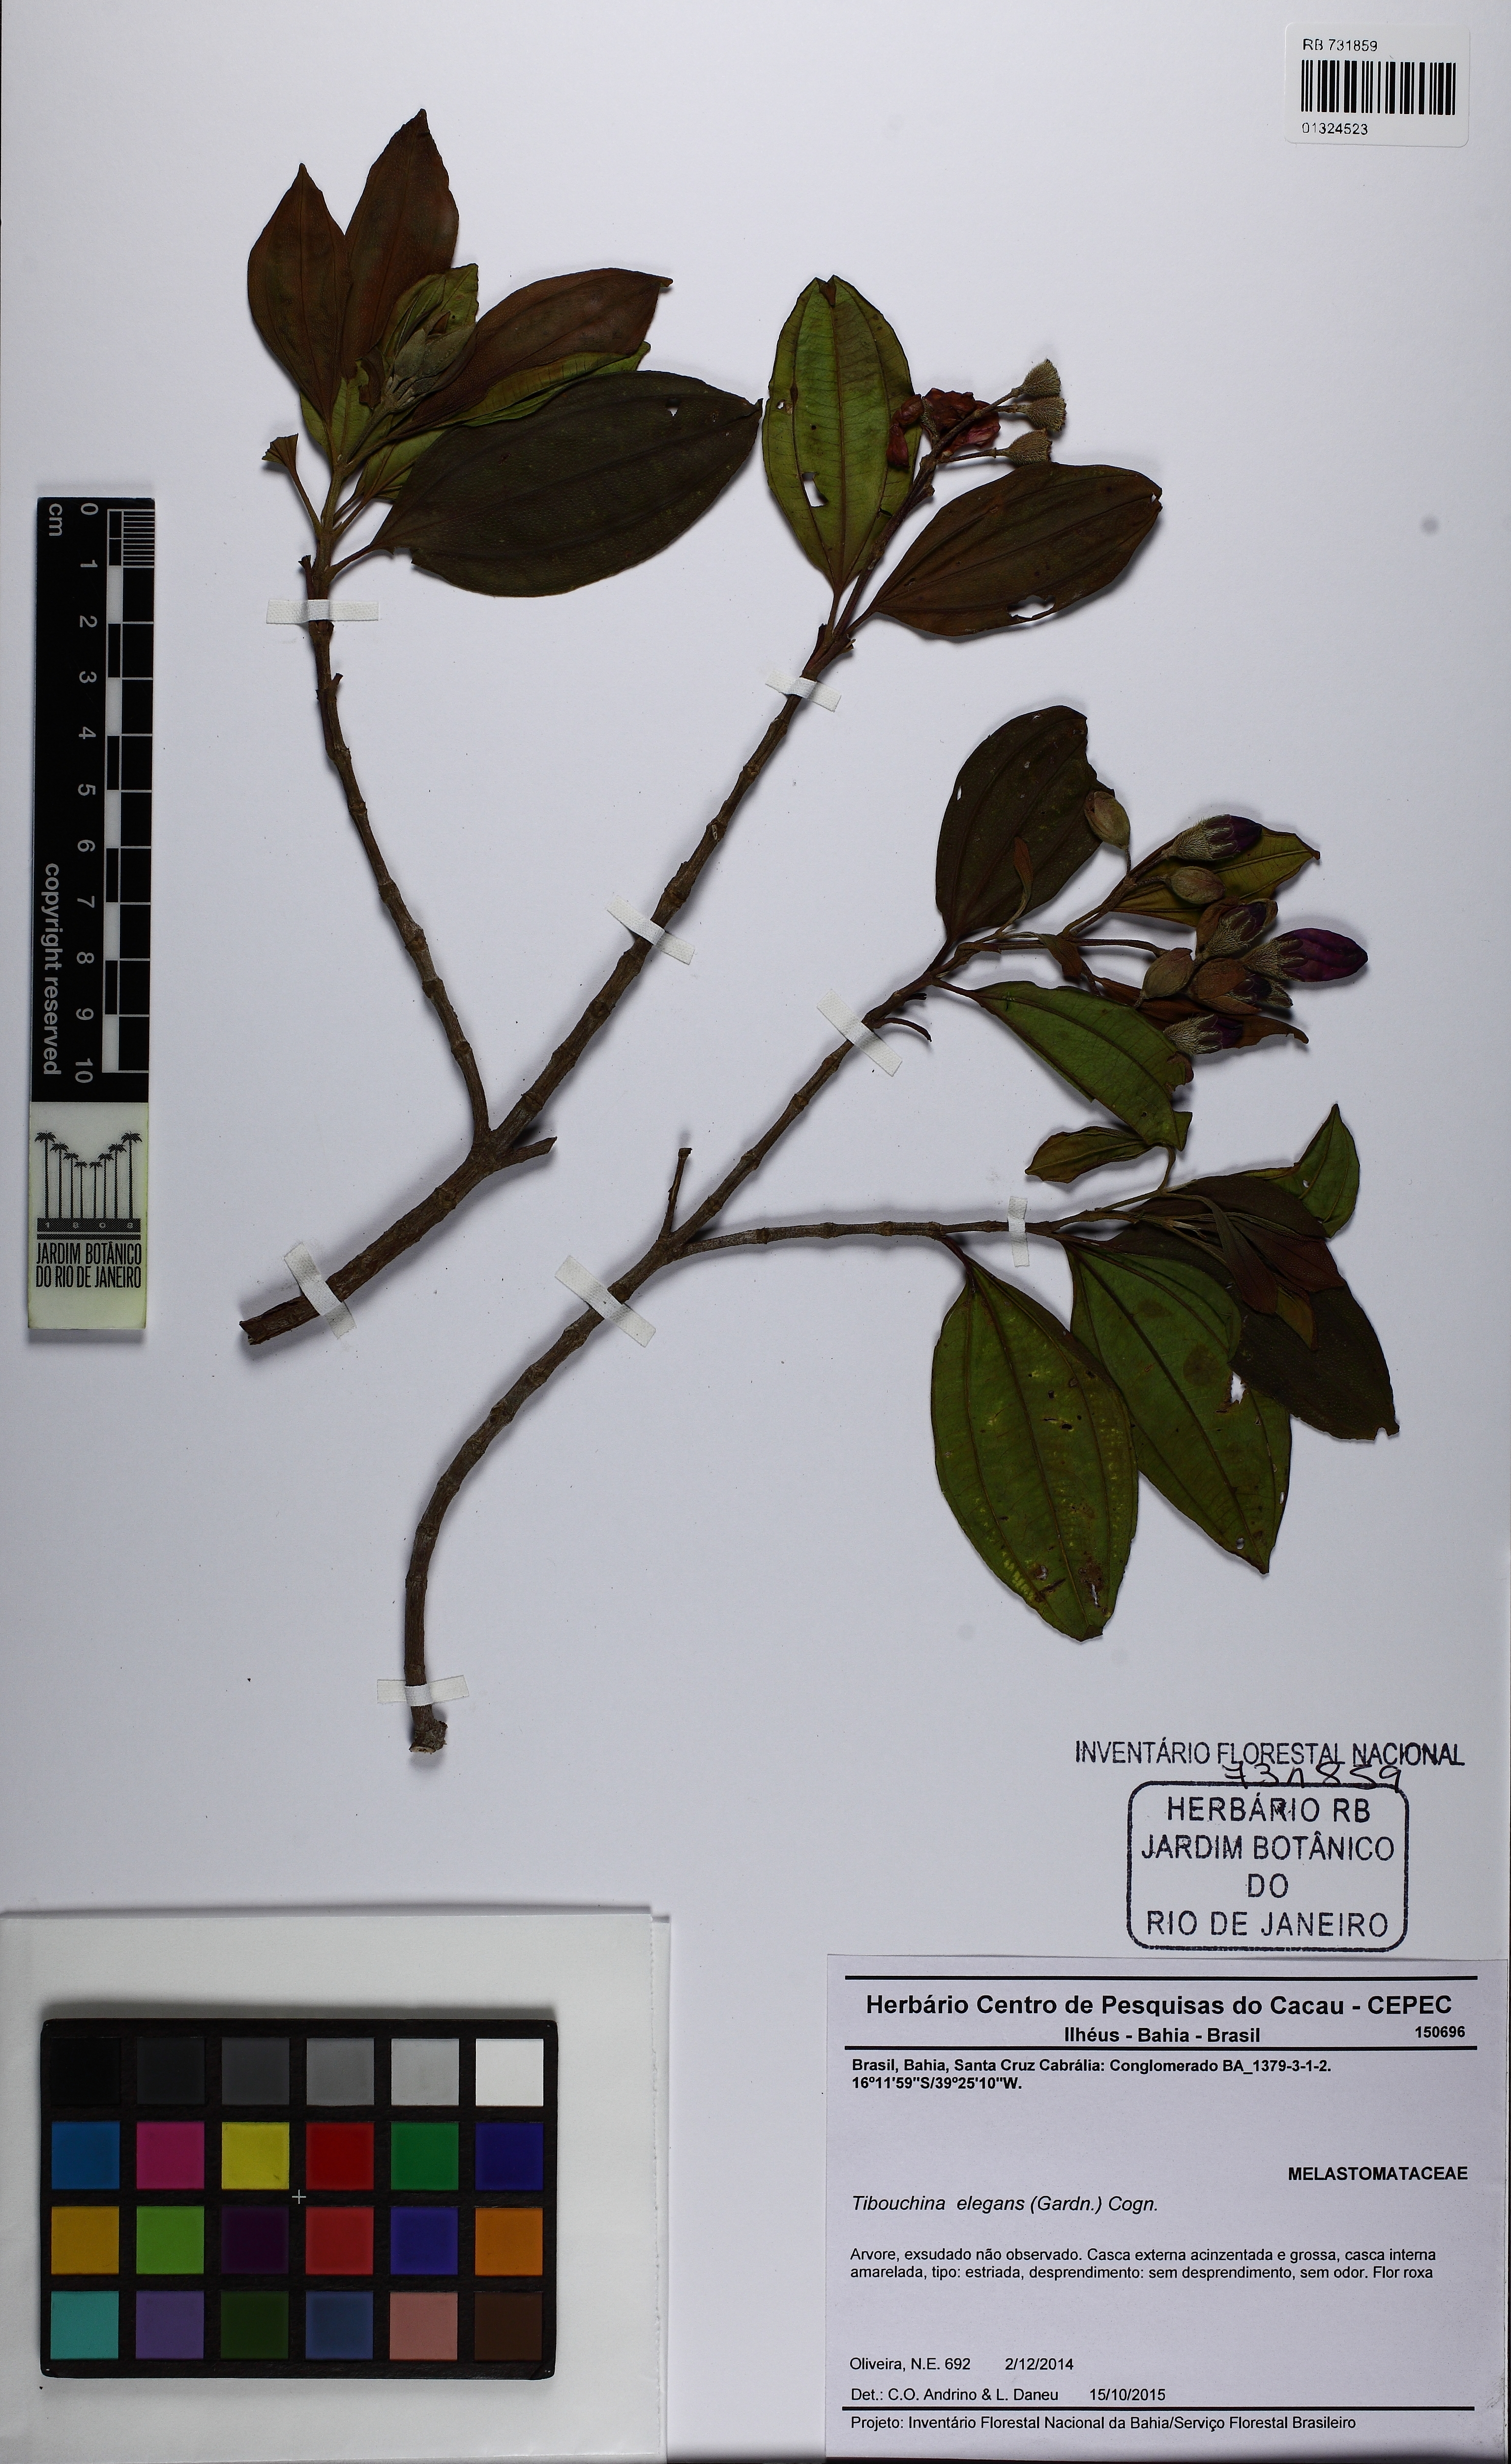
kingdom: Plantae
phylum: Tracheophyta
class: Magnoliopsida
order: Myrtales
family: Melastomataceae
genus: Pleroma
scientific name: Pleroma francavillanum
